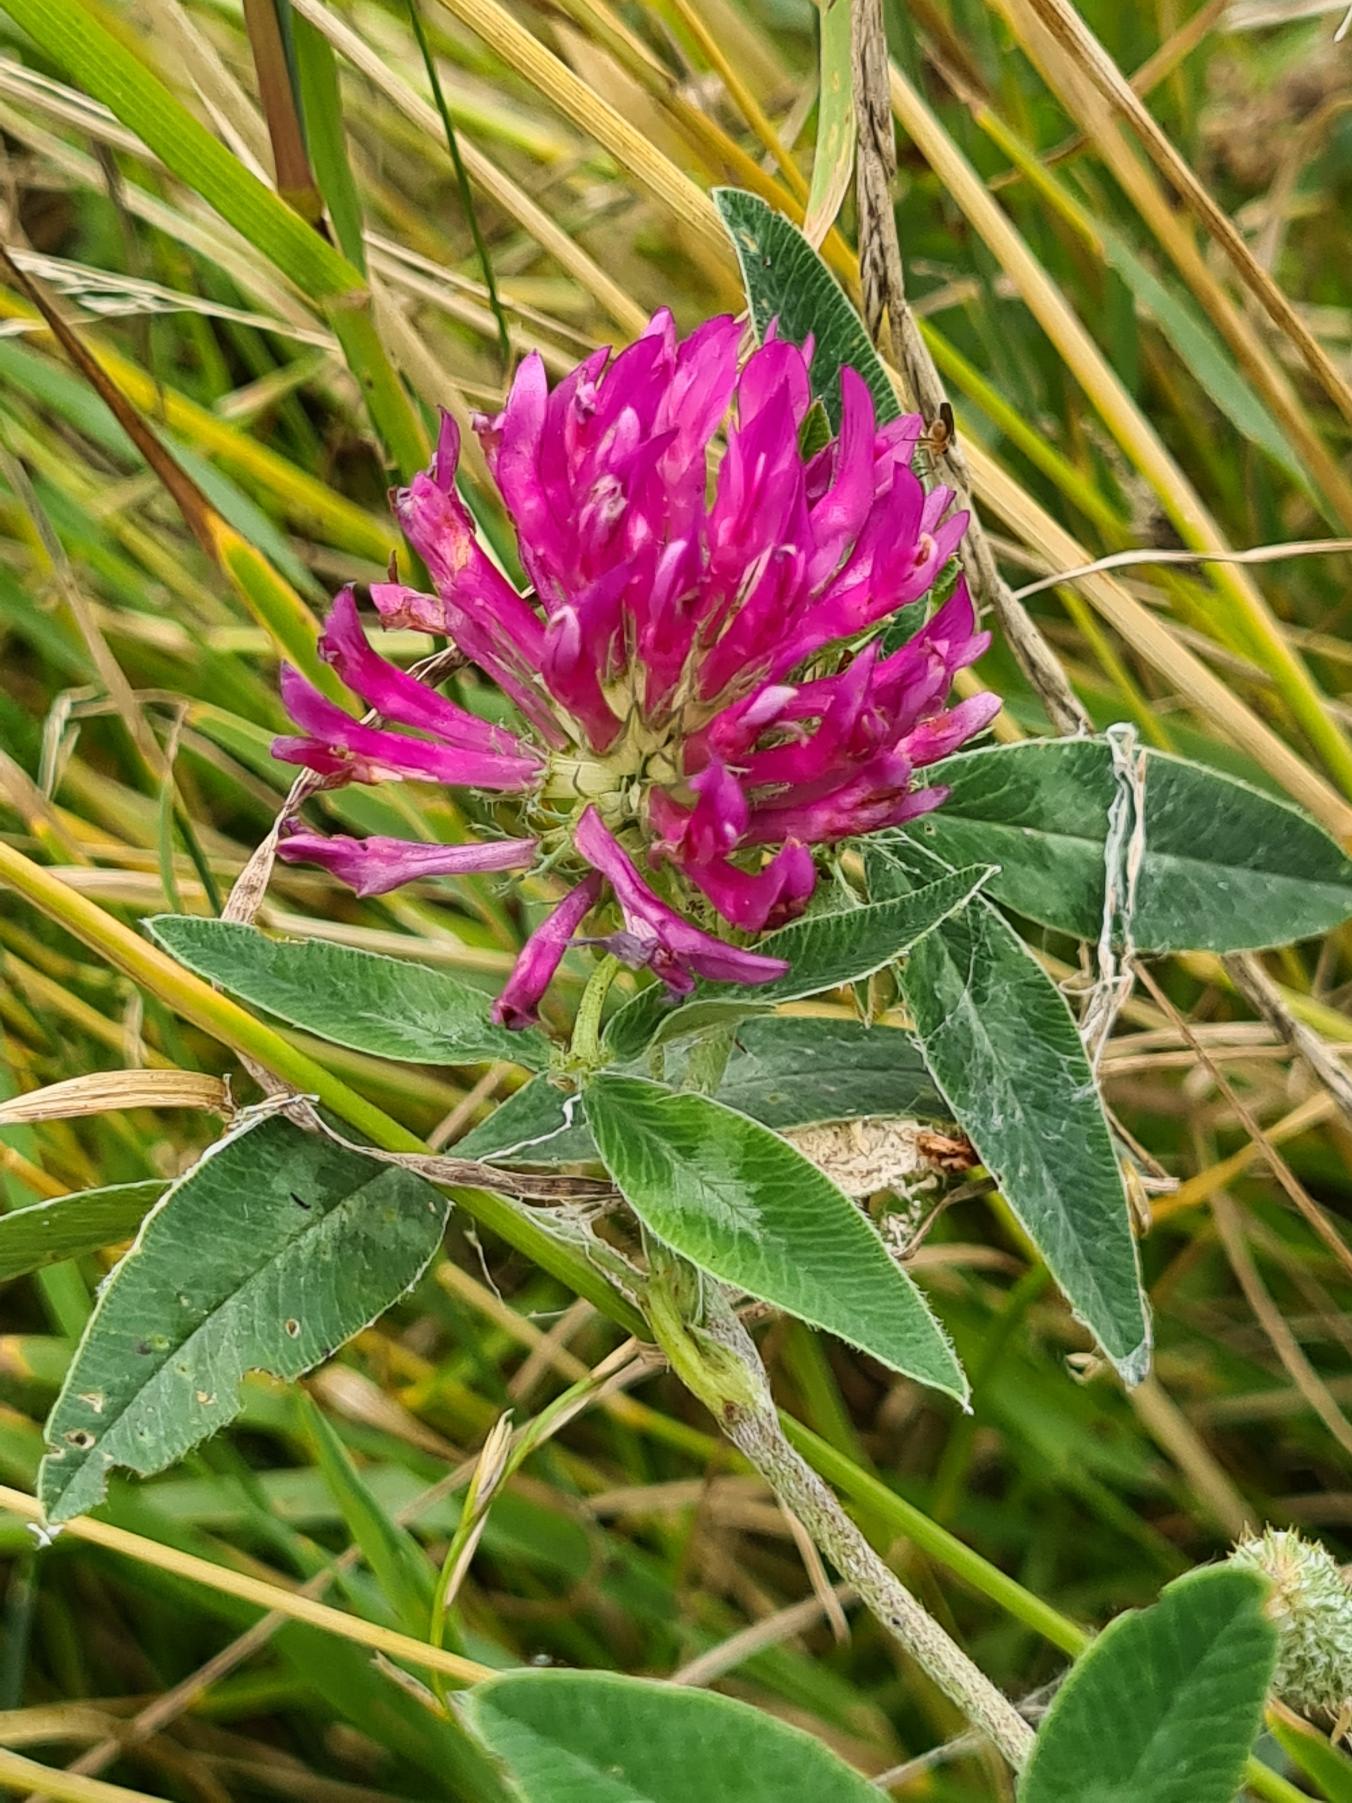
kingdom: Plantae
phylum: Tracheophyta
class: Magnoliopsida
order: Fabales
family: Fabaceae
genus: Trifolium
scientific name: Trifolium medium
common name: Bugtet kløver
